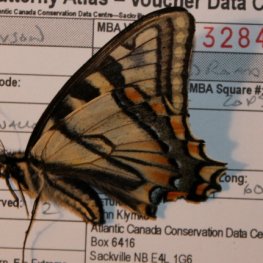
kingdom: Animalia
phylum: Arthropoda
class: Insecta
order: Lepidoptera
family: Papilionidae
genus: Pterourus
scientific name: Pterourus canadensis
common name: Canadian Tiger Swallowtail
